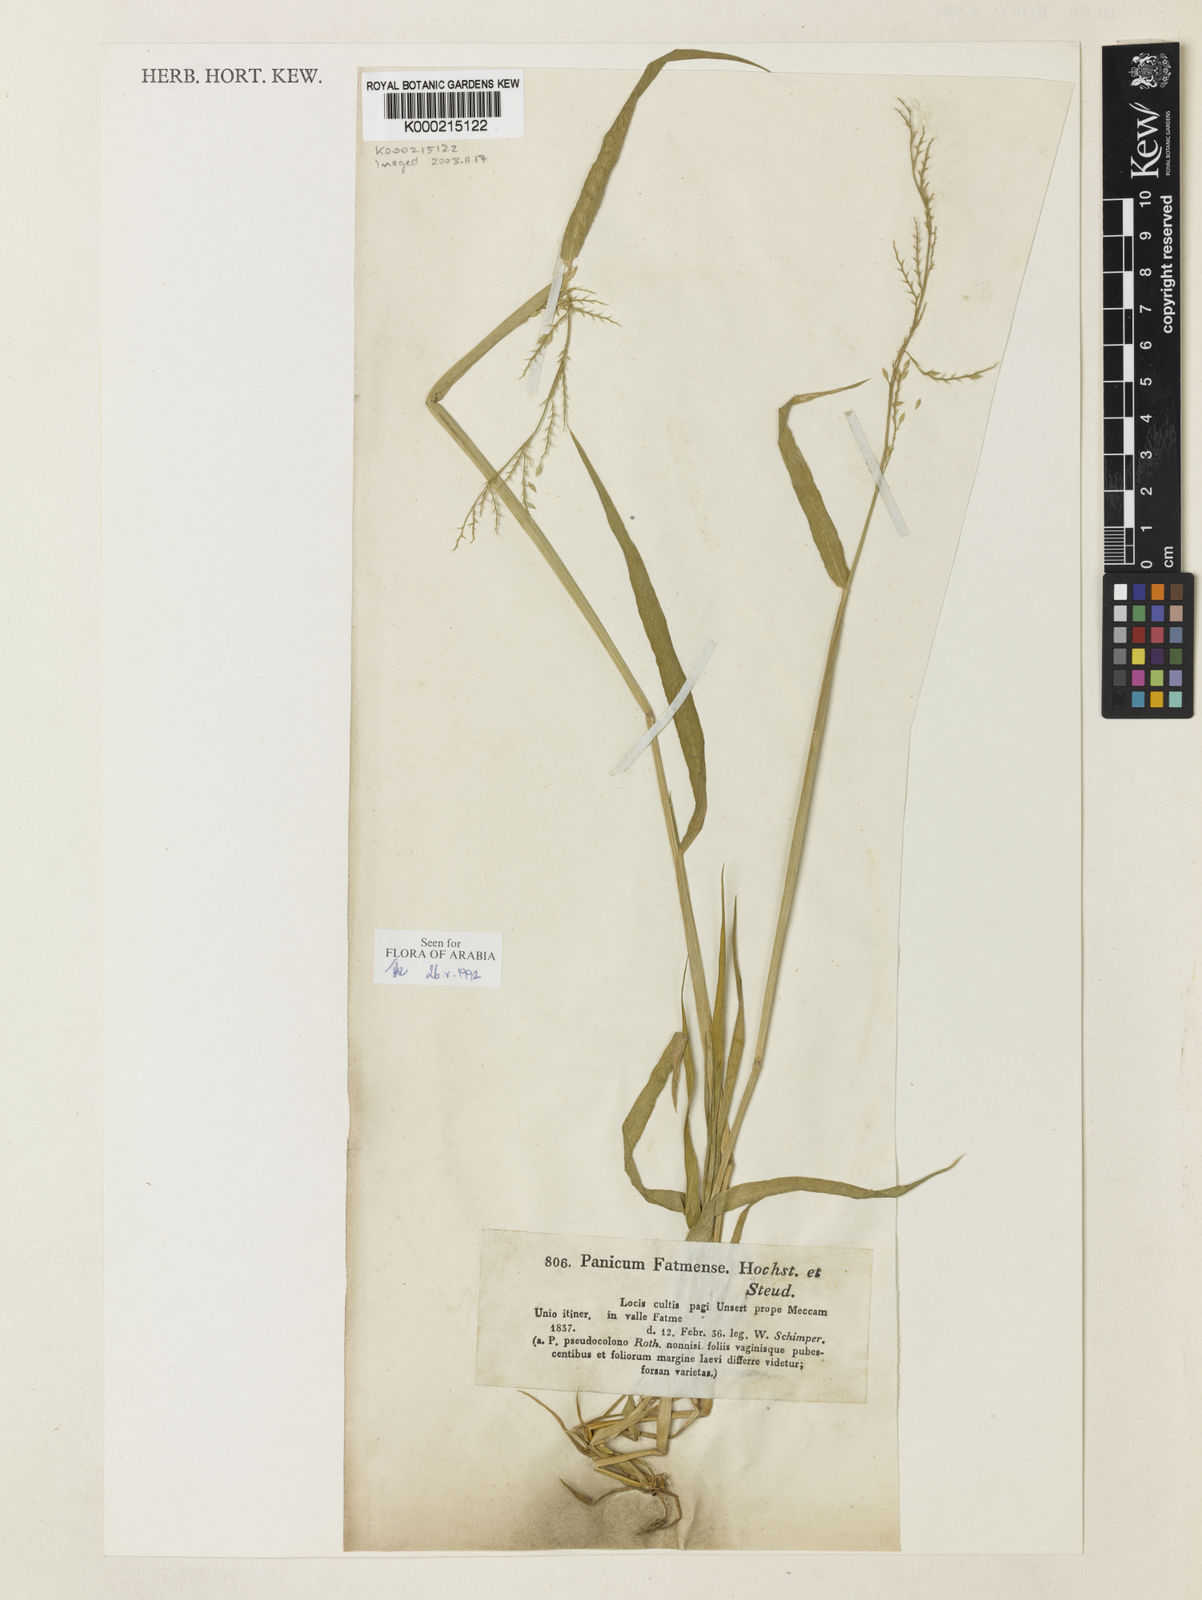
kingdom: Plantae
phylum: Tracheophyta
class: Liliopsida
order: Poales
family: Poaceae
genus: Eriochloa
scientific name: Eriochloa barbatus
